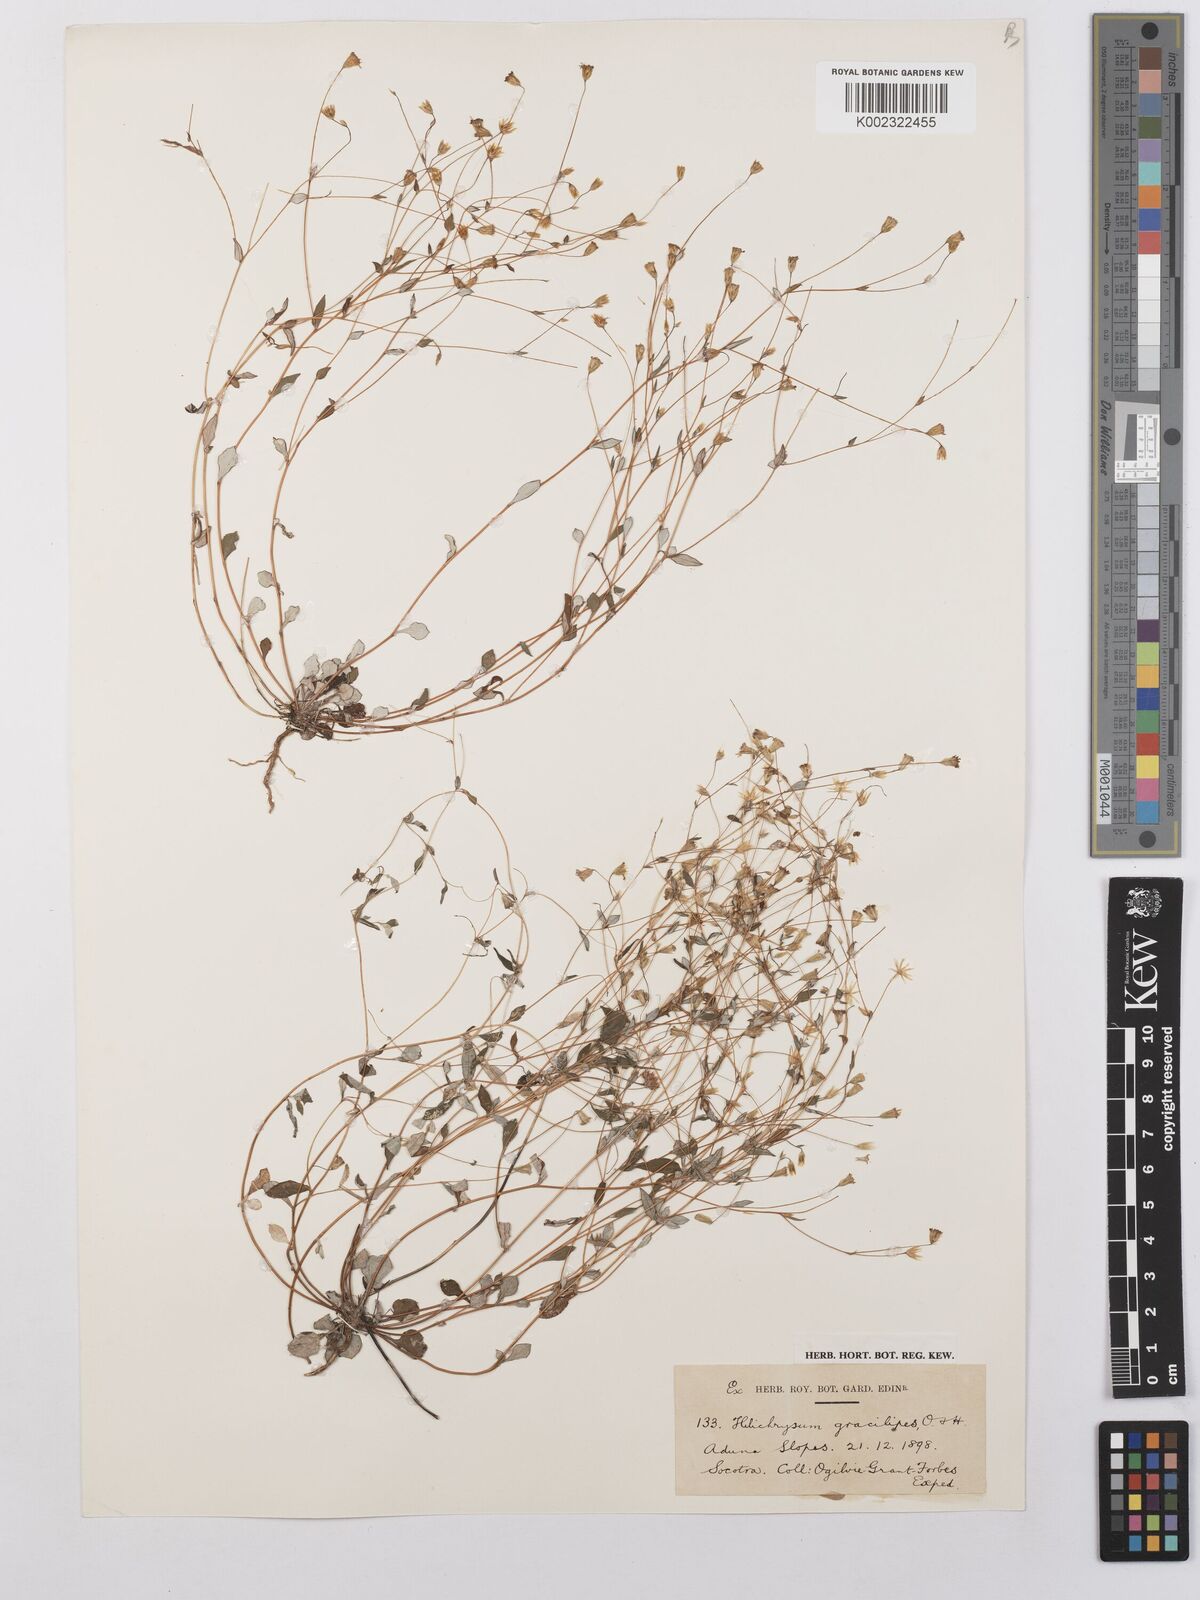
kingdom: Plantae
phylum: Tracheophyta
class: Magnoliopsida
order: Asterales
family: Asteraceae
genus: Libinhania
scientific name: Libinhania gracilipes
